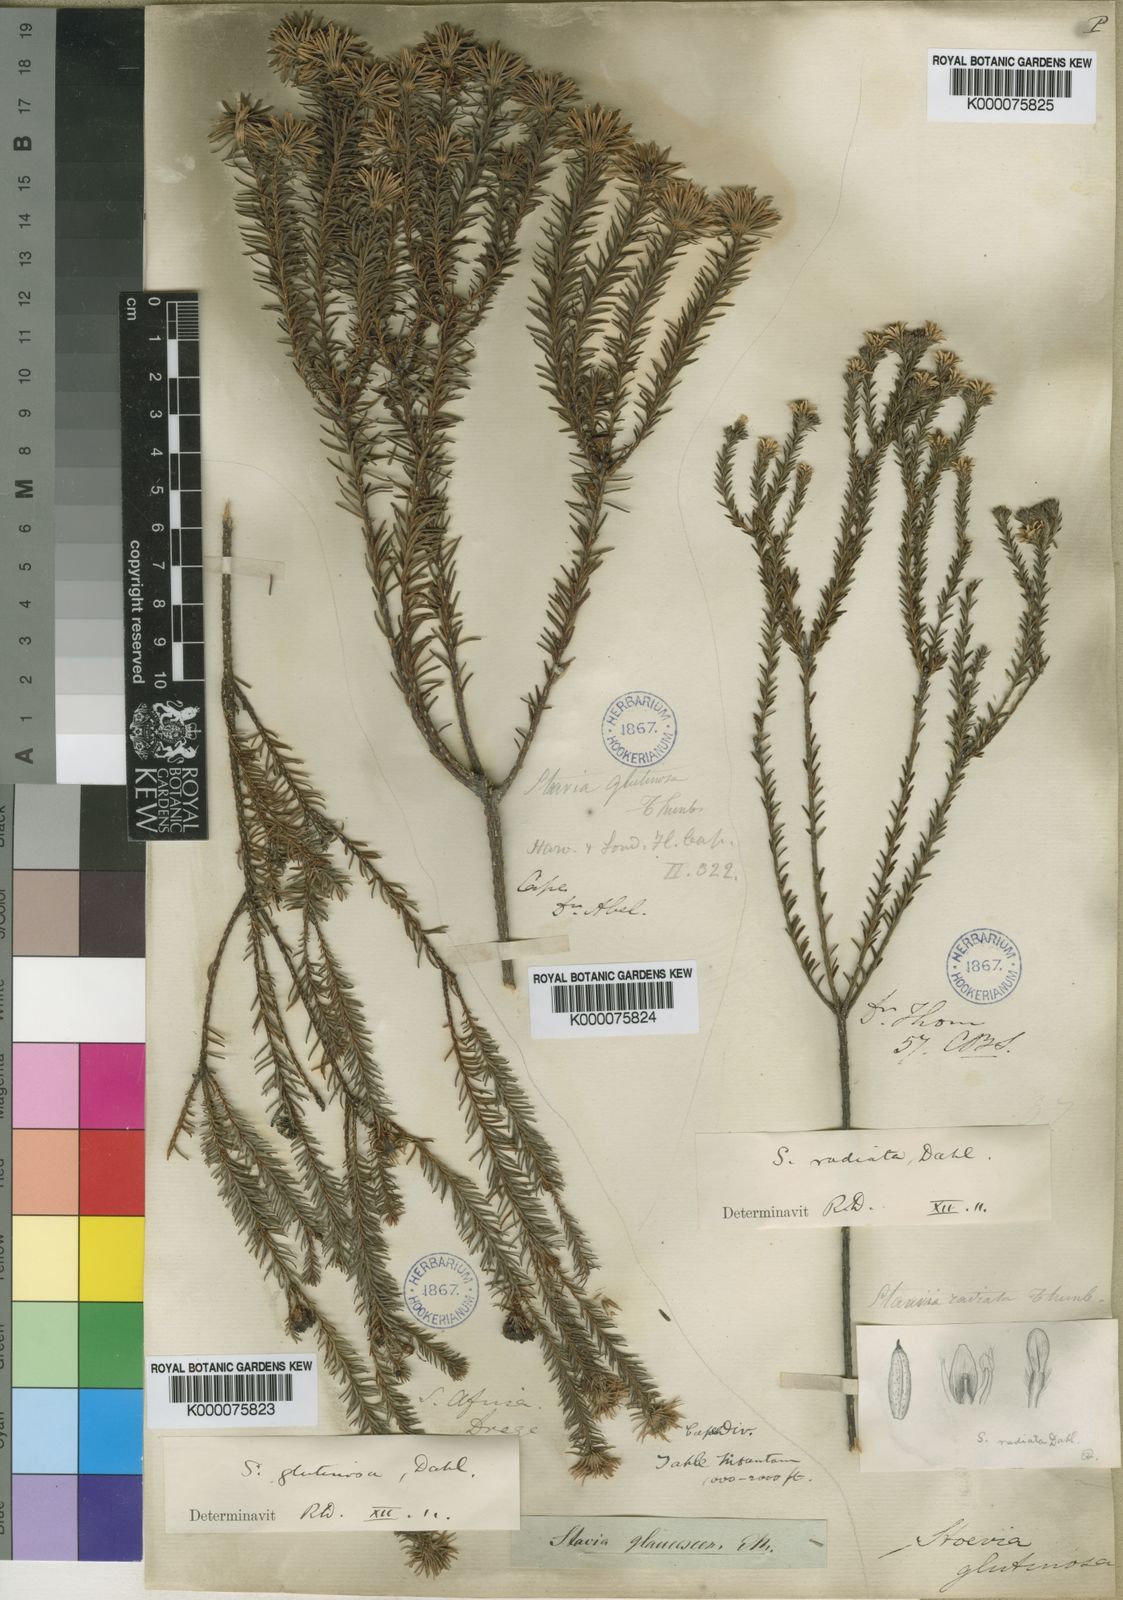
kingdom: Plantae
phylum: Tracheophyta
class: Magnoliopsida
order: Bruniales
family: Bruniaceae
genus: Staavia
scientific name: Staavia glutinosa
